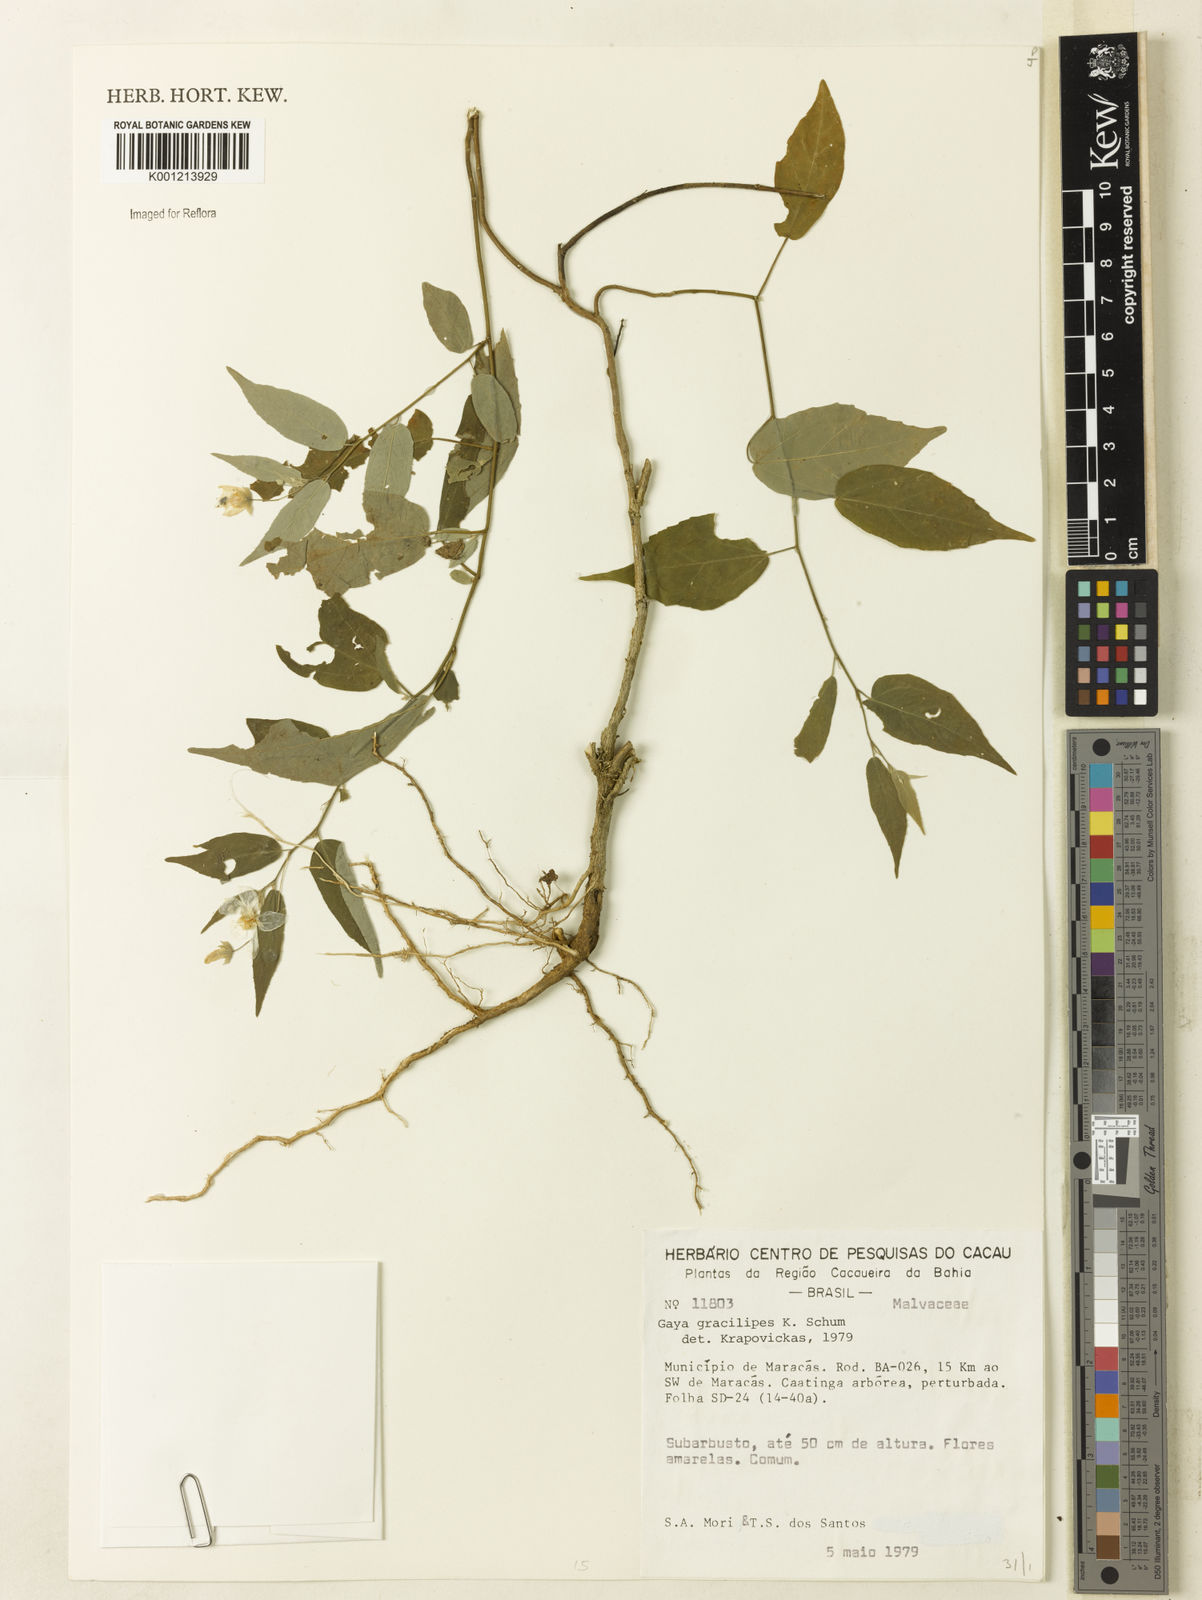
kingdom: Plantae
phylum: Tracheophyta
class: Magnoliopsida
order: Malvales
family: Malvaceae
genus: Gaya
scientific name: Gaya gracilipes
